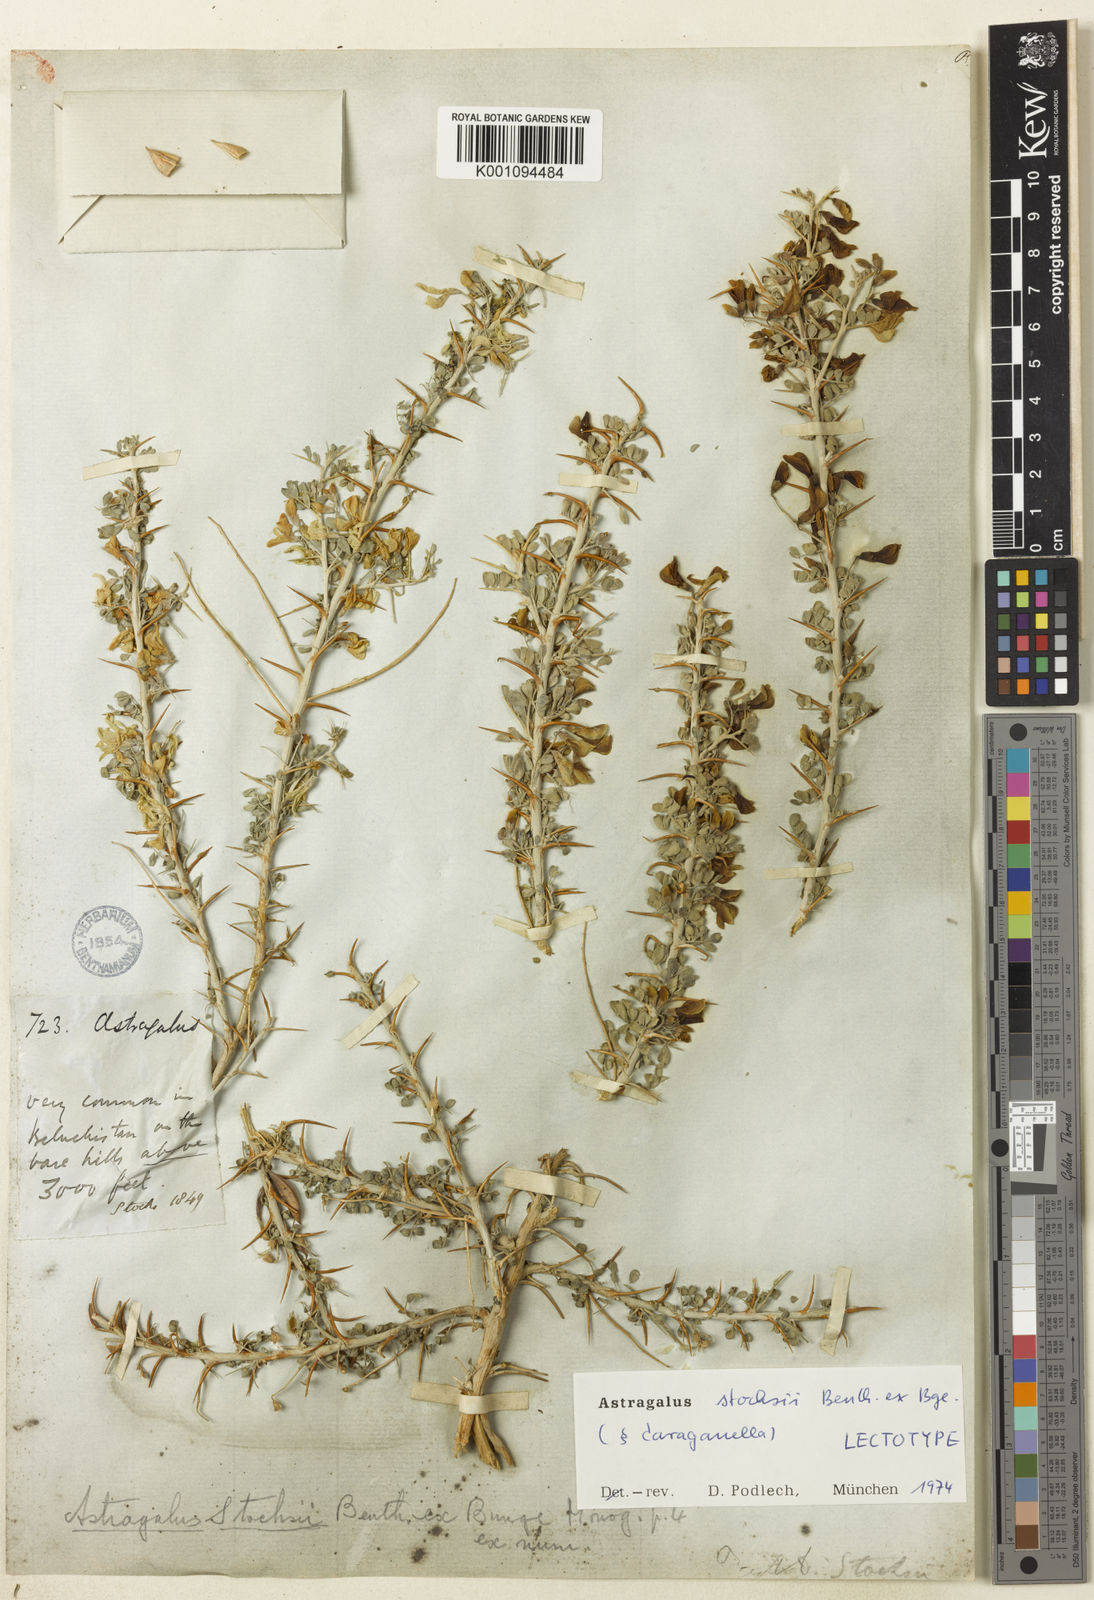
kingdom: Plantae
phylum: Tracheophyta
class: Magnoliopsida
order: Fabales
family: Fabaceae
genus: Astragalus
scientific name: Astragalus
